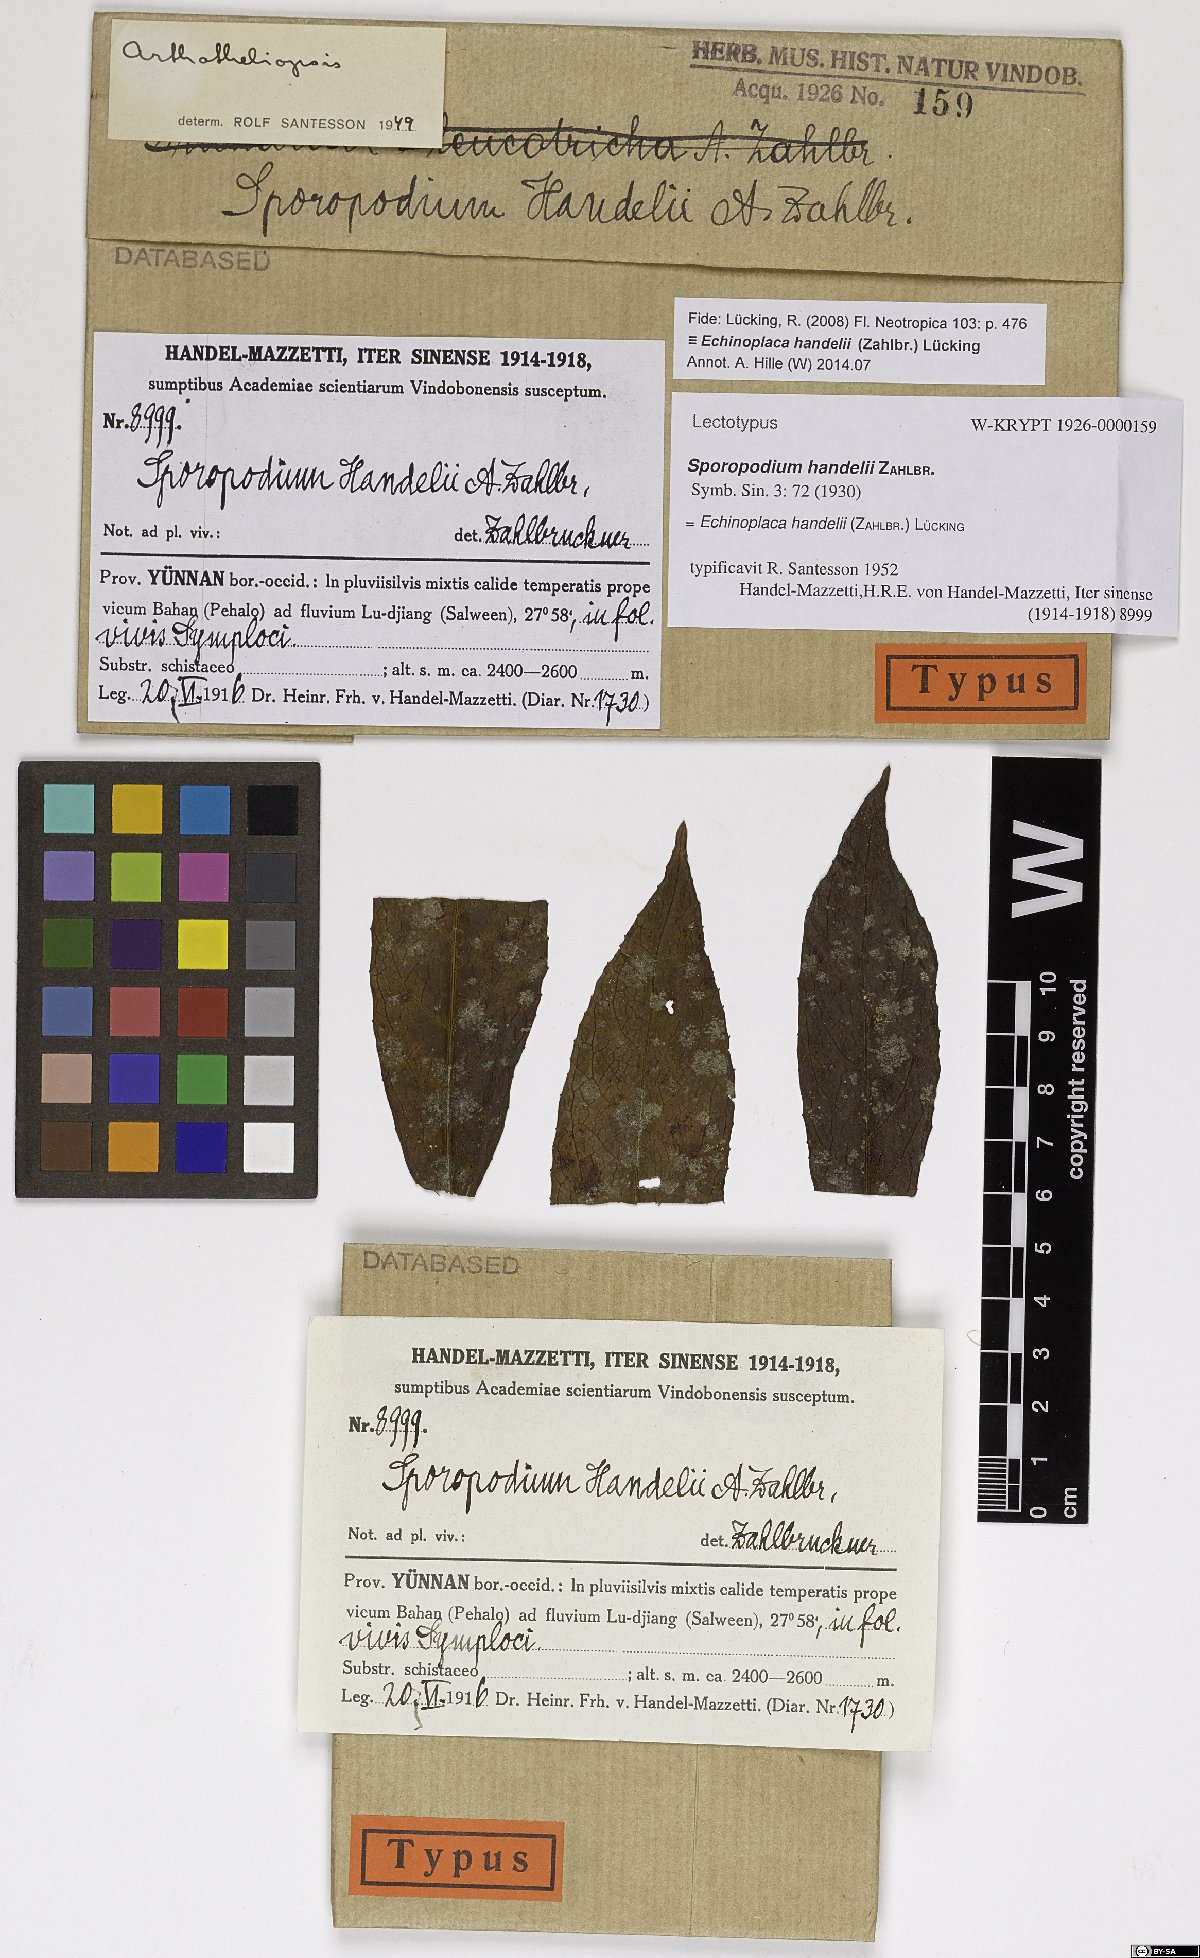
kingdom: Fungi
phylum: Ascomycota
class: Lecanoromycetes
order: Ostropales
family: Gomphillaceae
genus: Echinoplaca
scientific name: Echinoplaca handelii
